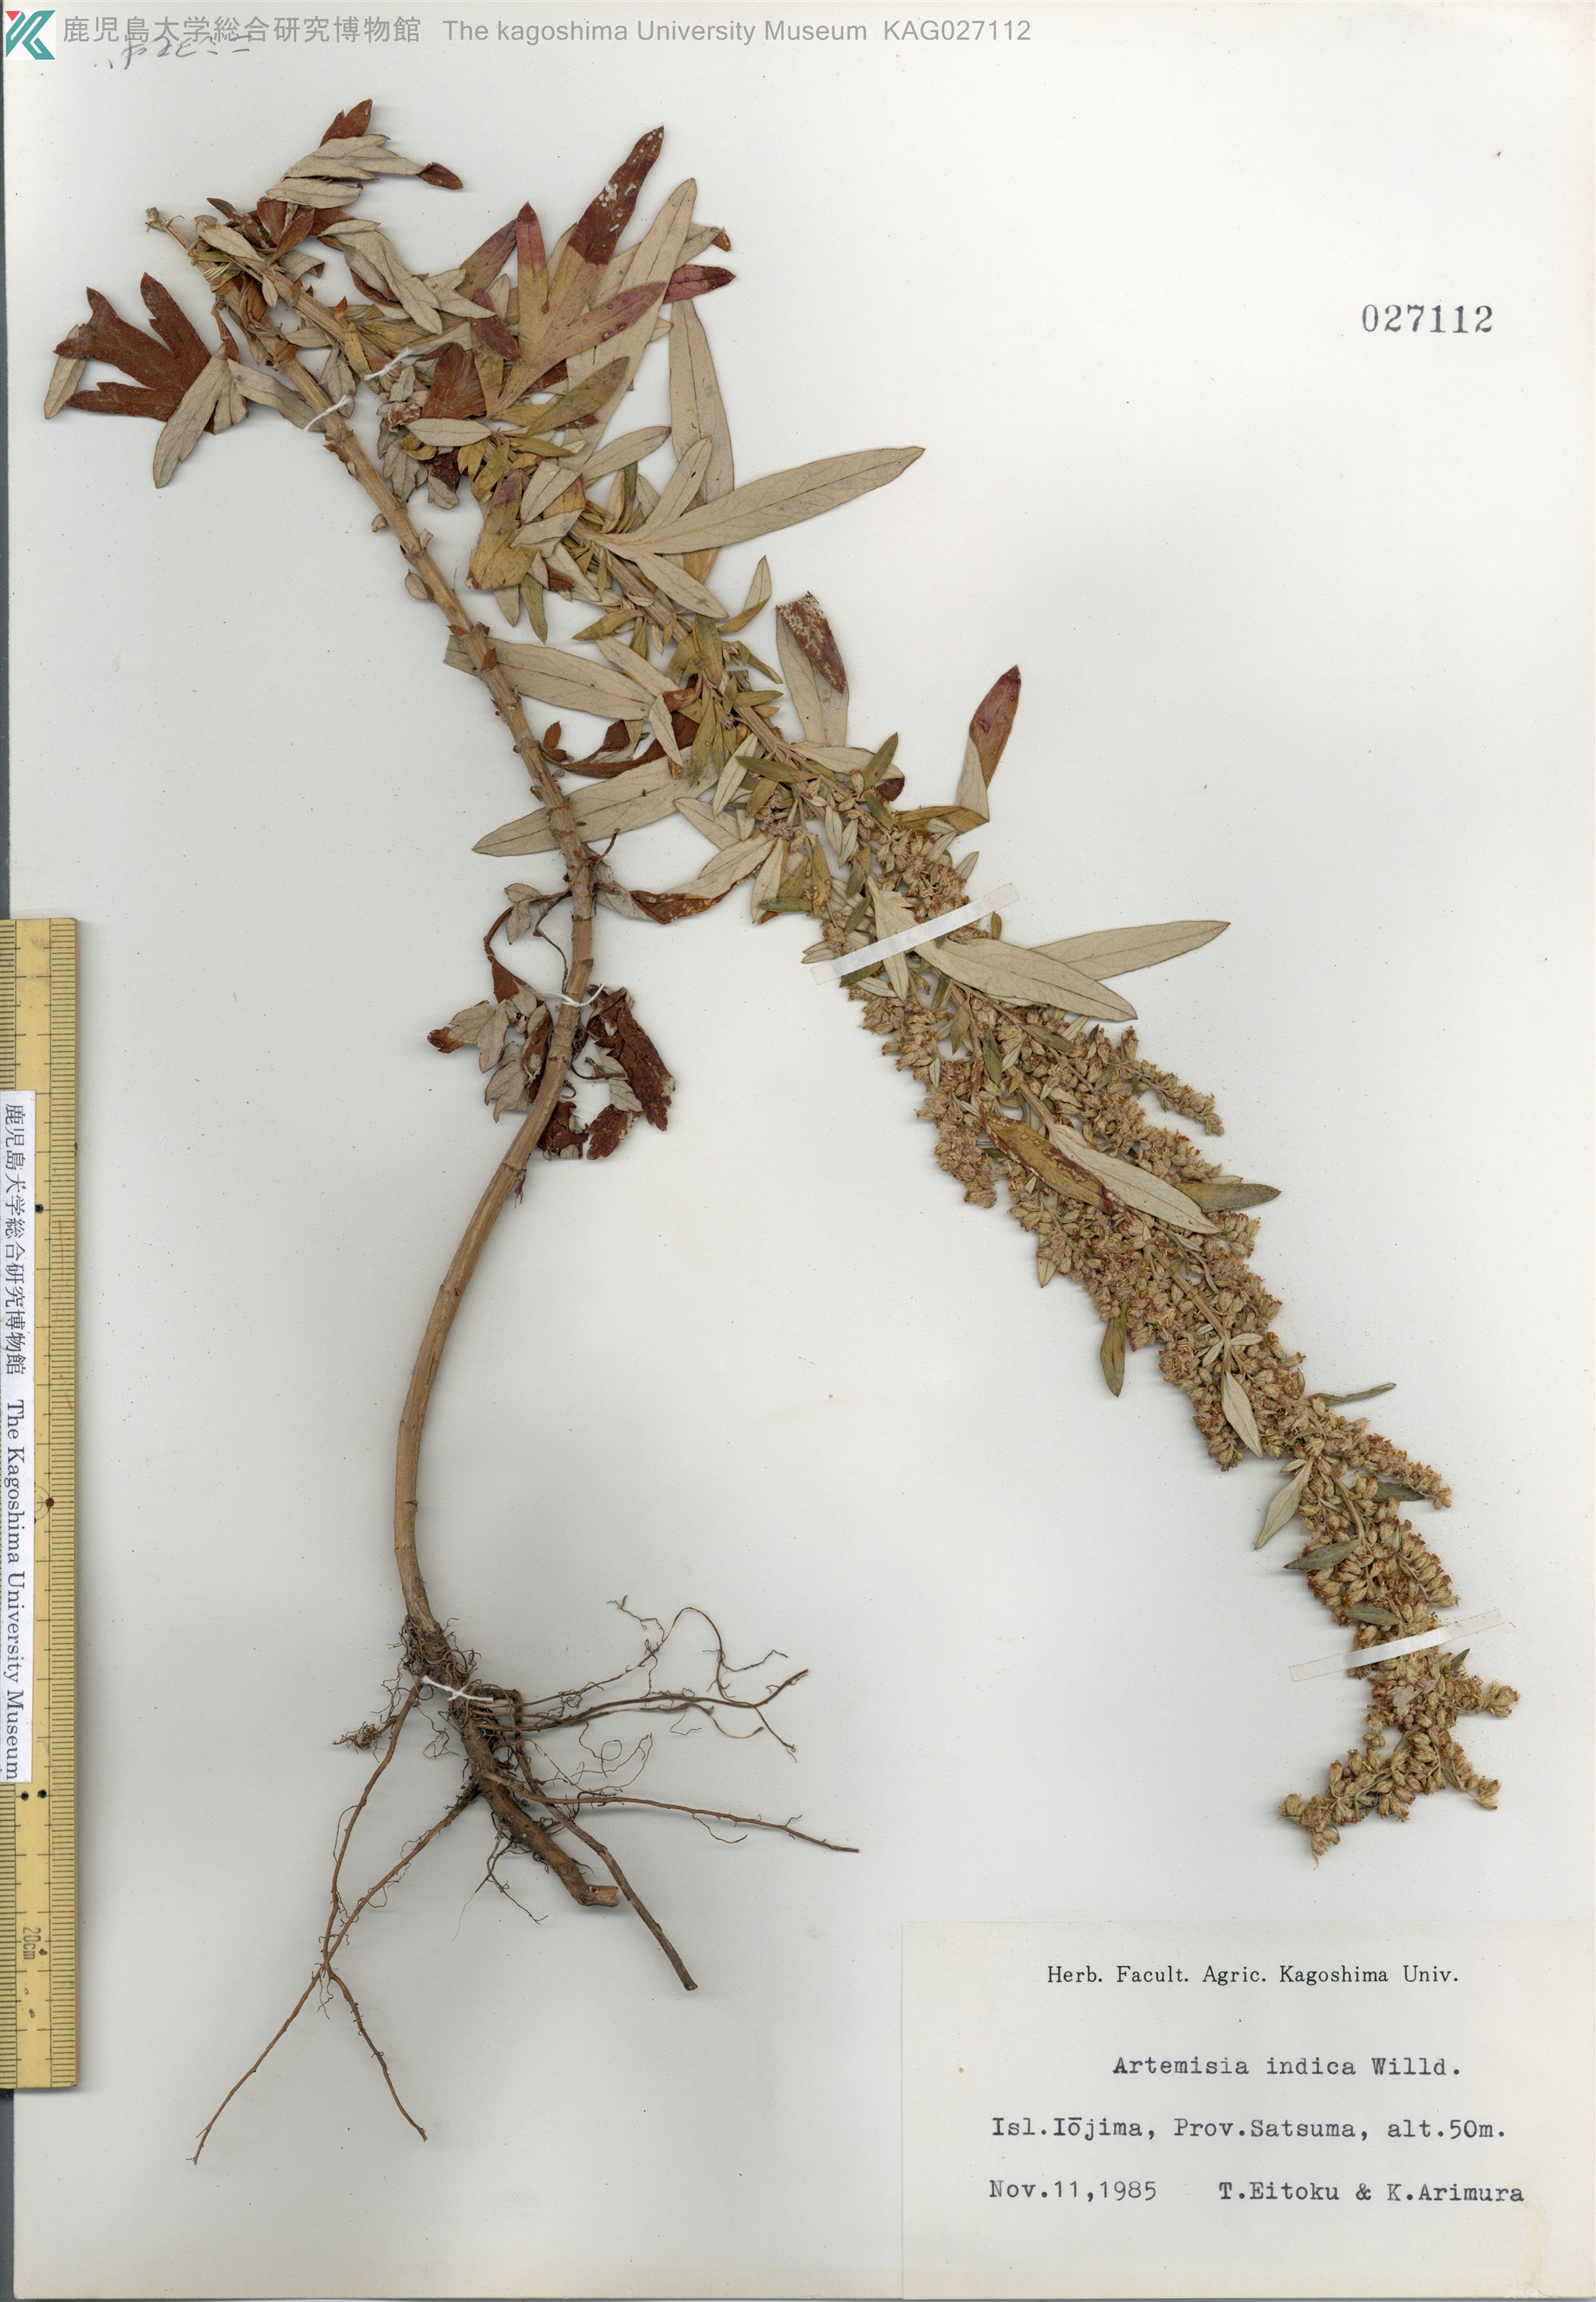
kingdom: Plantae
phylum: Tracheophyta
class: Magnoliopsida
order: Asterales
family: Asteraceae
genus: Artemisia
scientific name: Artemisia indica
